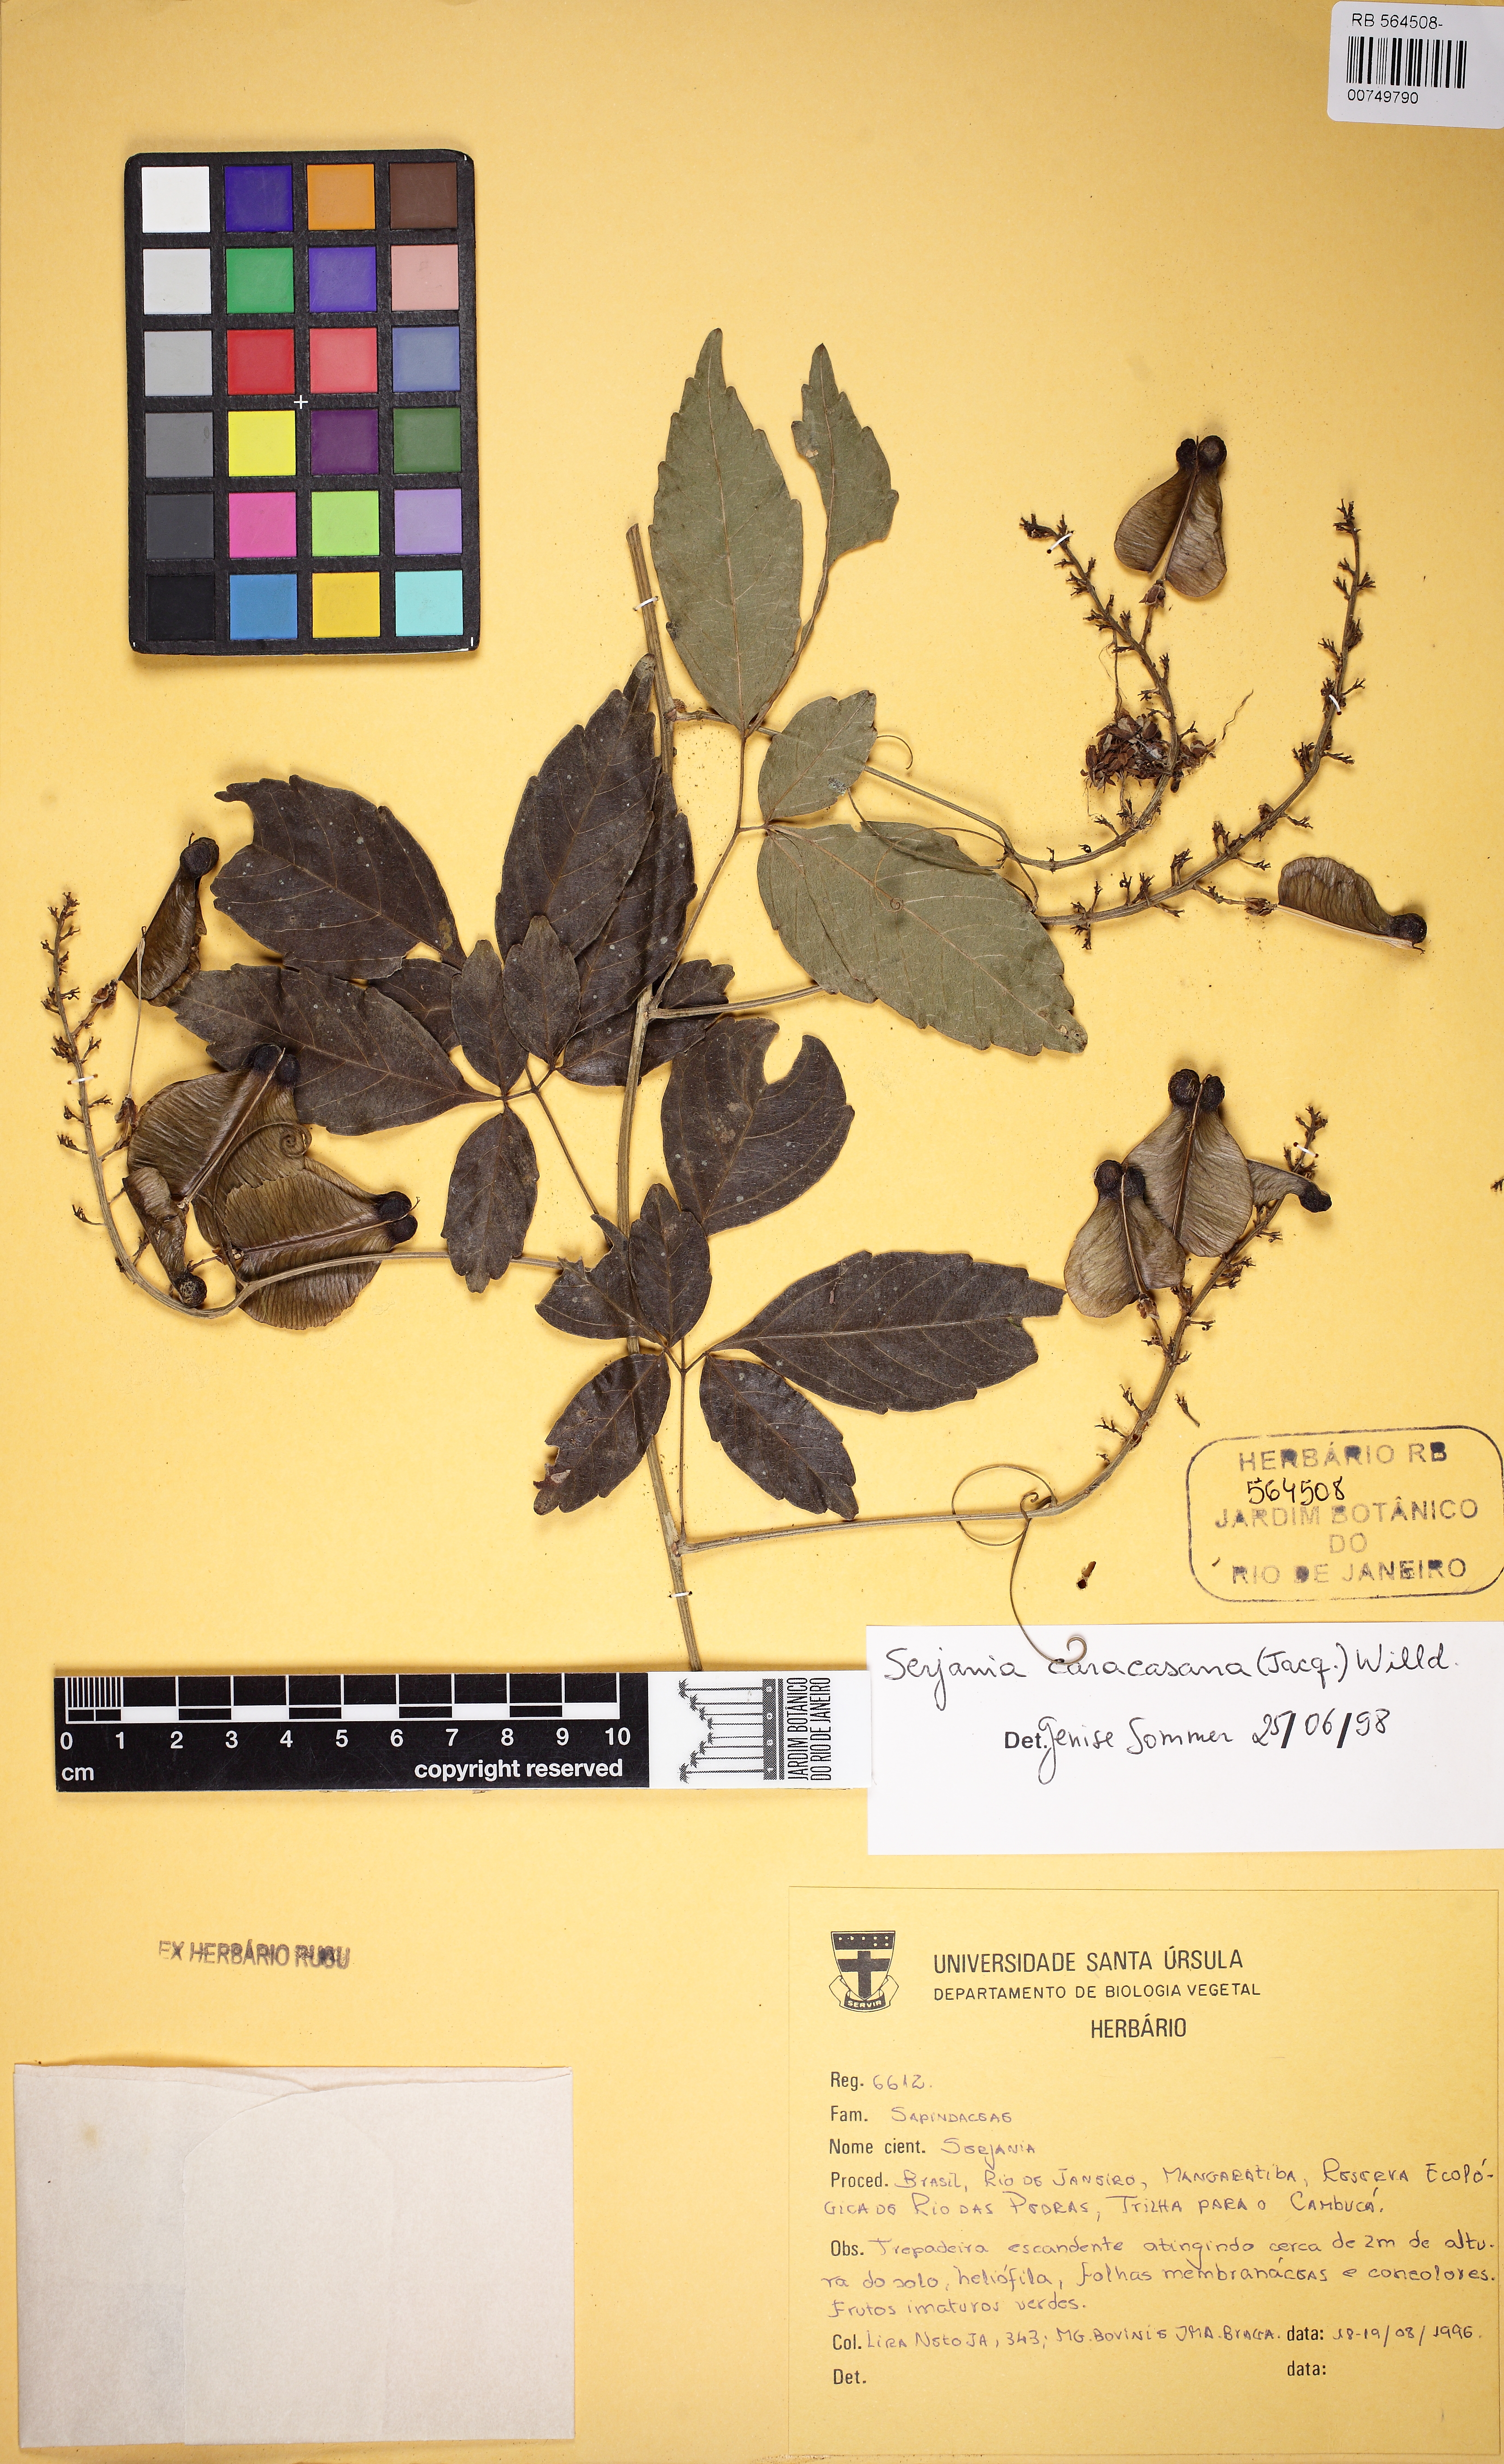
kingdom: Plantae
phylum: Tracheophyta
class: Magnoliopsida
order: Sapindales
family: Sapindaceae
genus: Serjania
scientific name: Serjania caracasana
